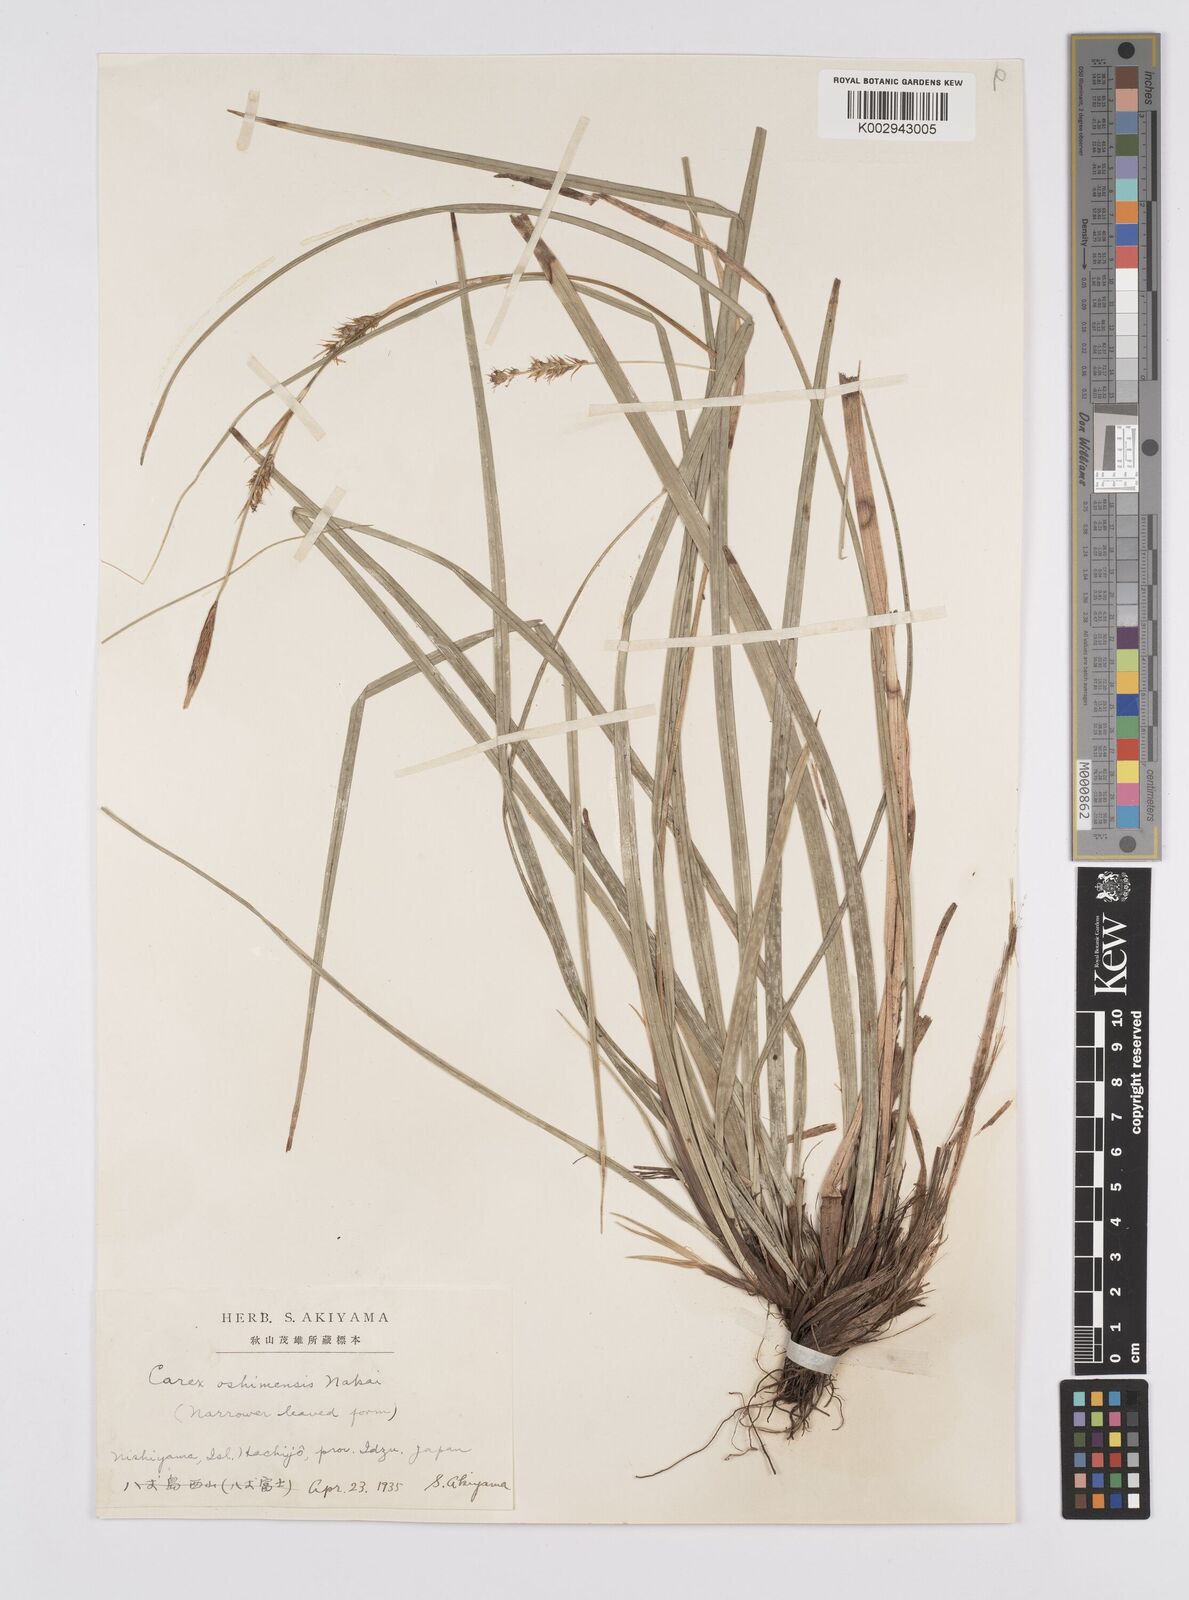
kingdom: Plantae
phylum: Tracheophyta
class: Liliopsida
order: Poales
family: Cyperaceae
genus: Carex
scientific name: Carex oshimensis
